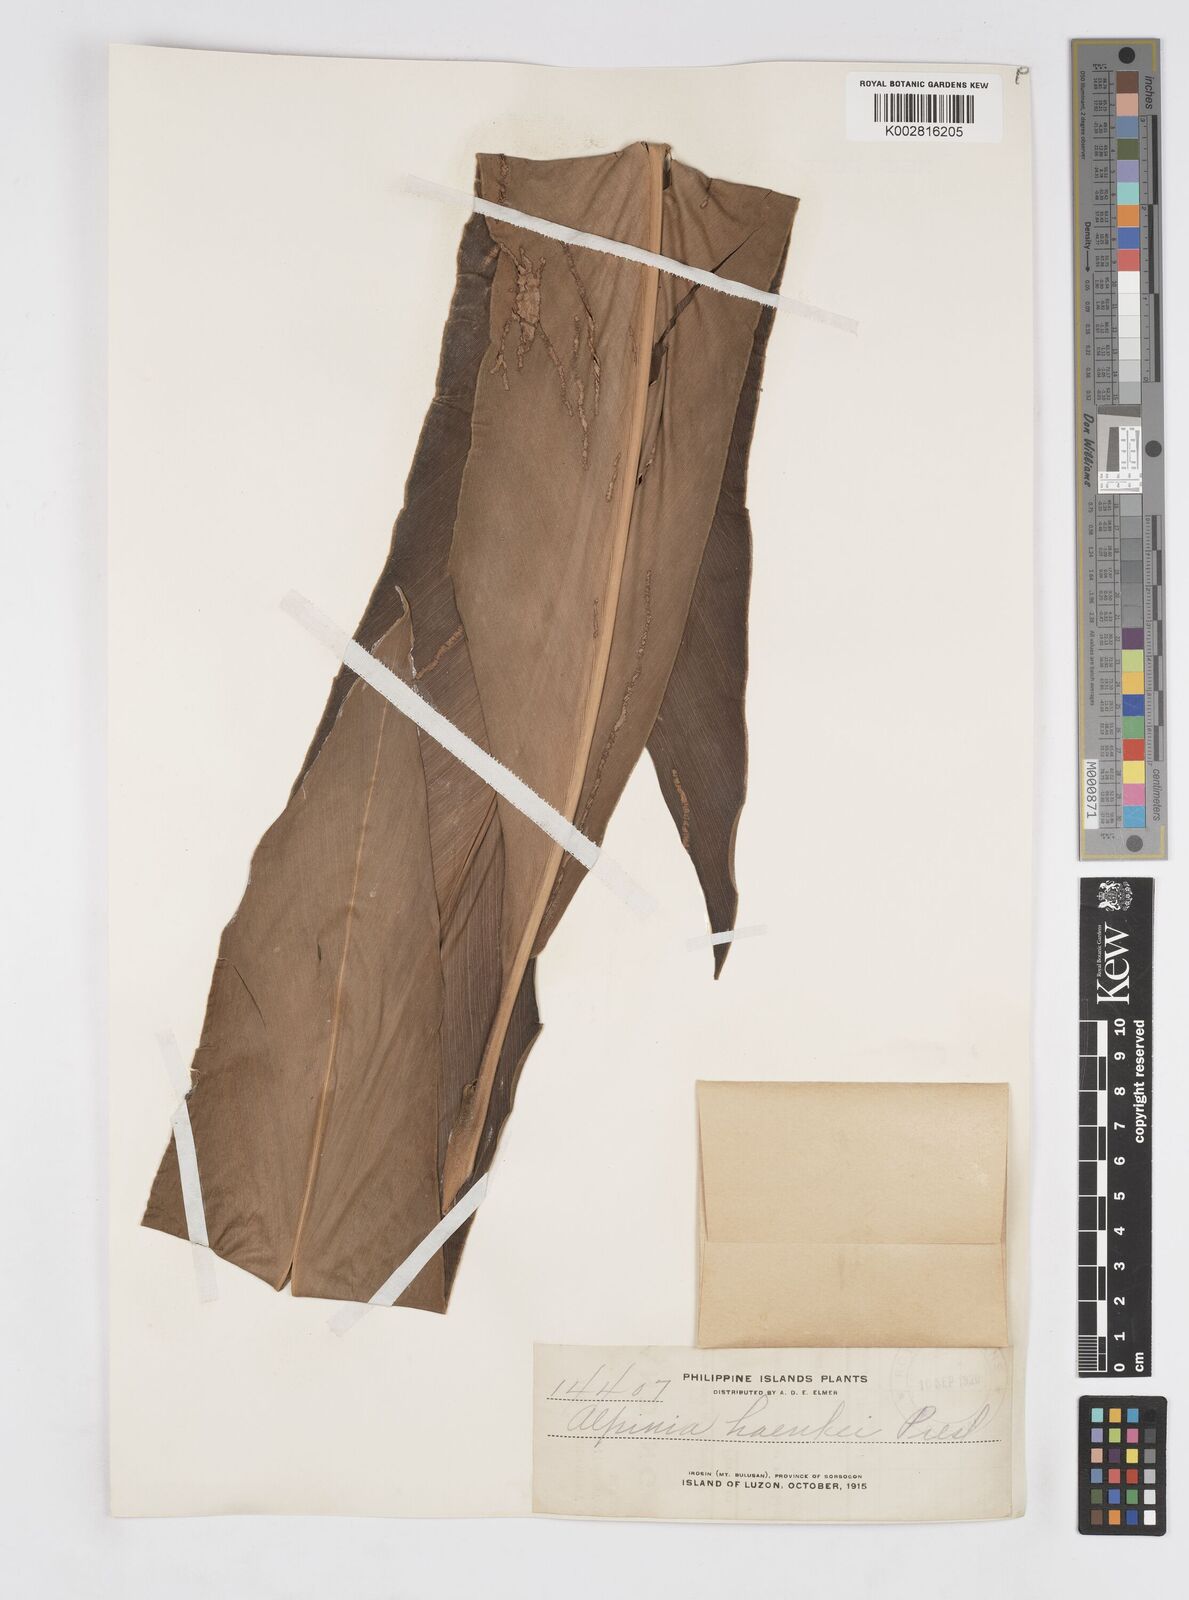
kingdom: Plantae
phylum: Tracheophyta
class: Liliopsida
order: Zingiberales
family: Zingiberaceae
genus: Alpinia
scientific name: Alpinia haenkei
